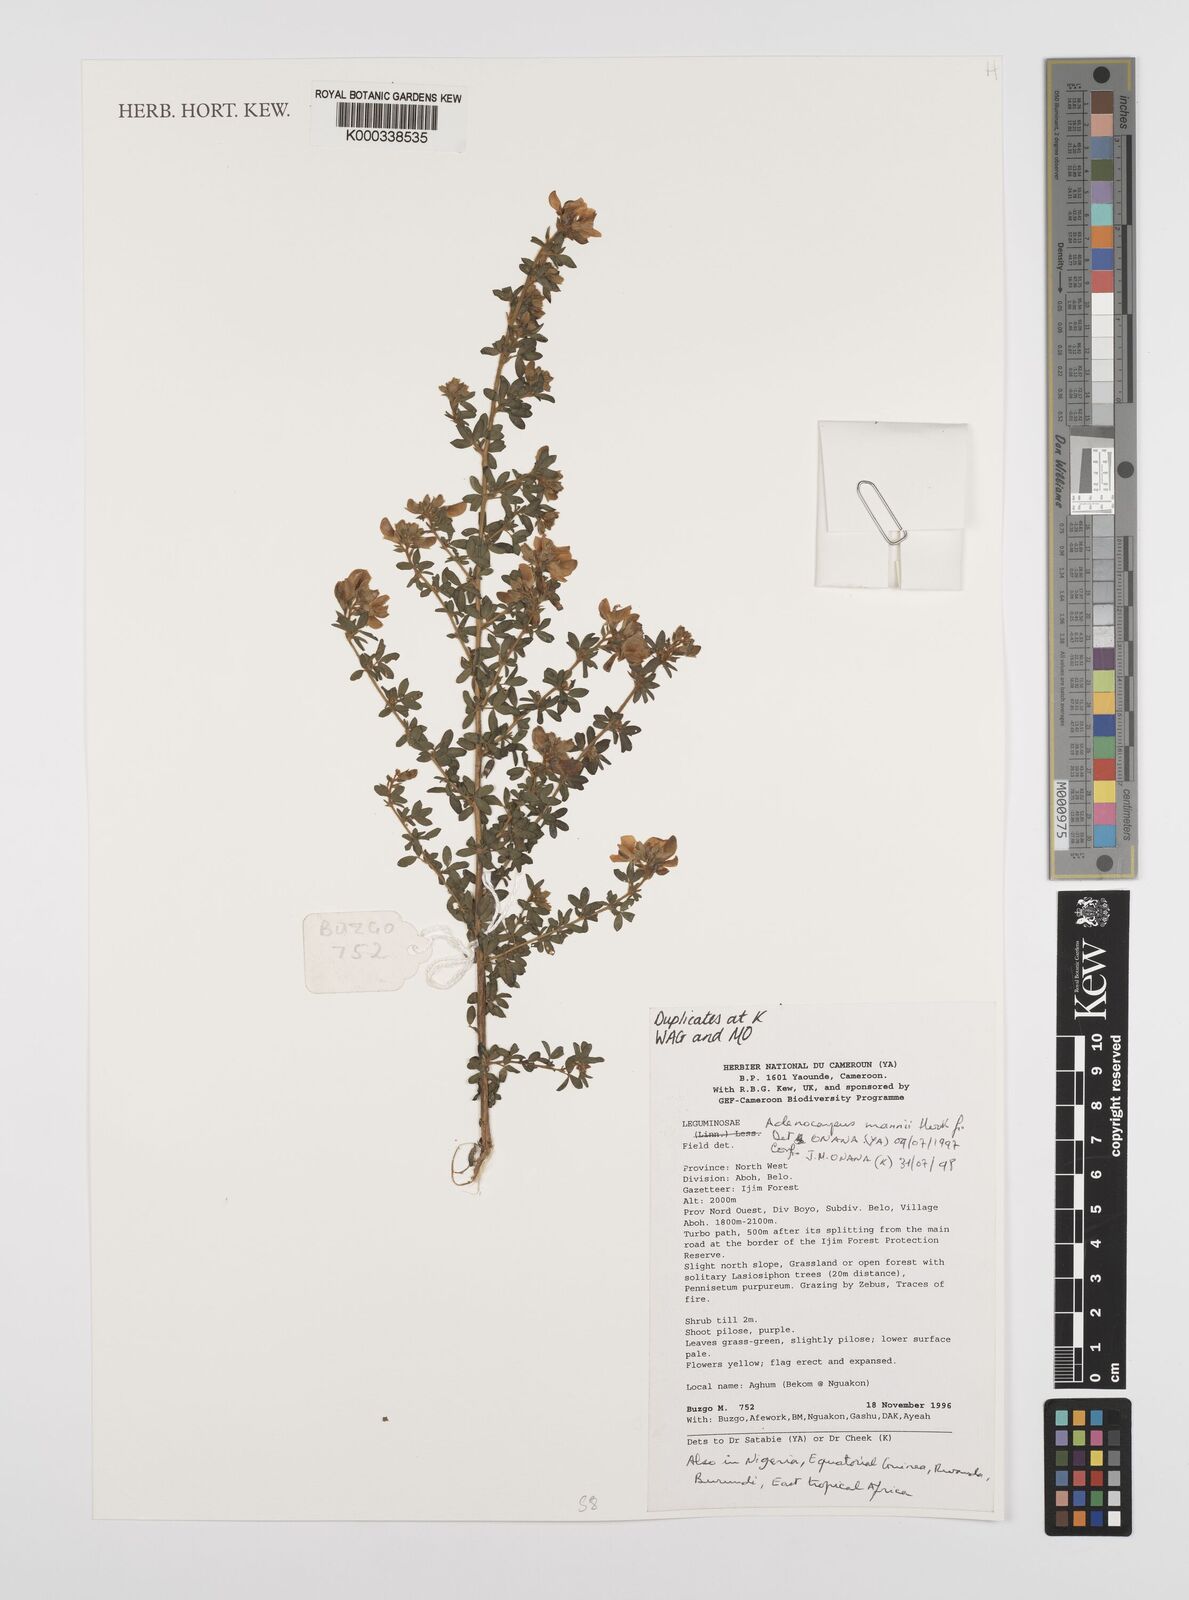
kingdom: Plantae
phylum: Tracheophyta
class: Magnoliopsida
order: Fabales
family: Fabaceae
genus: Adenocarpus
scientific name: Adenocarpus mannii
